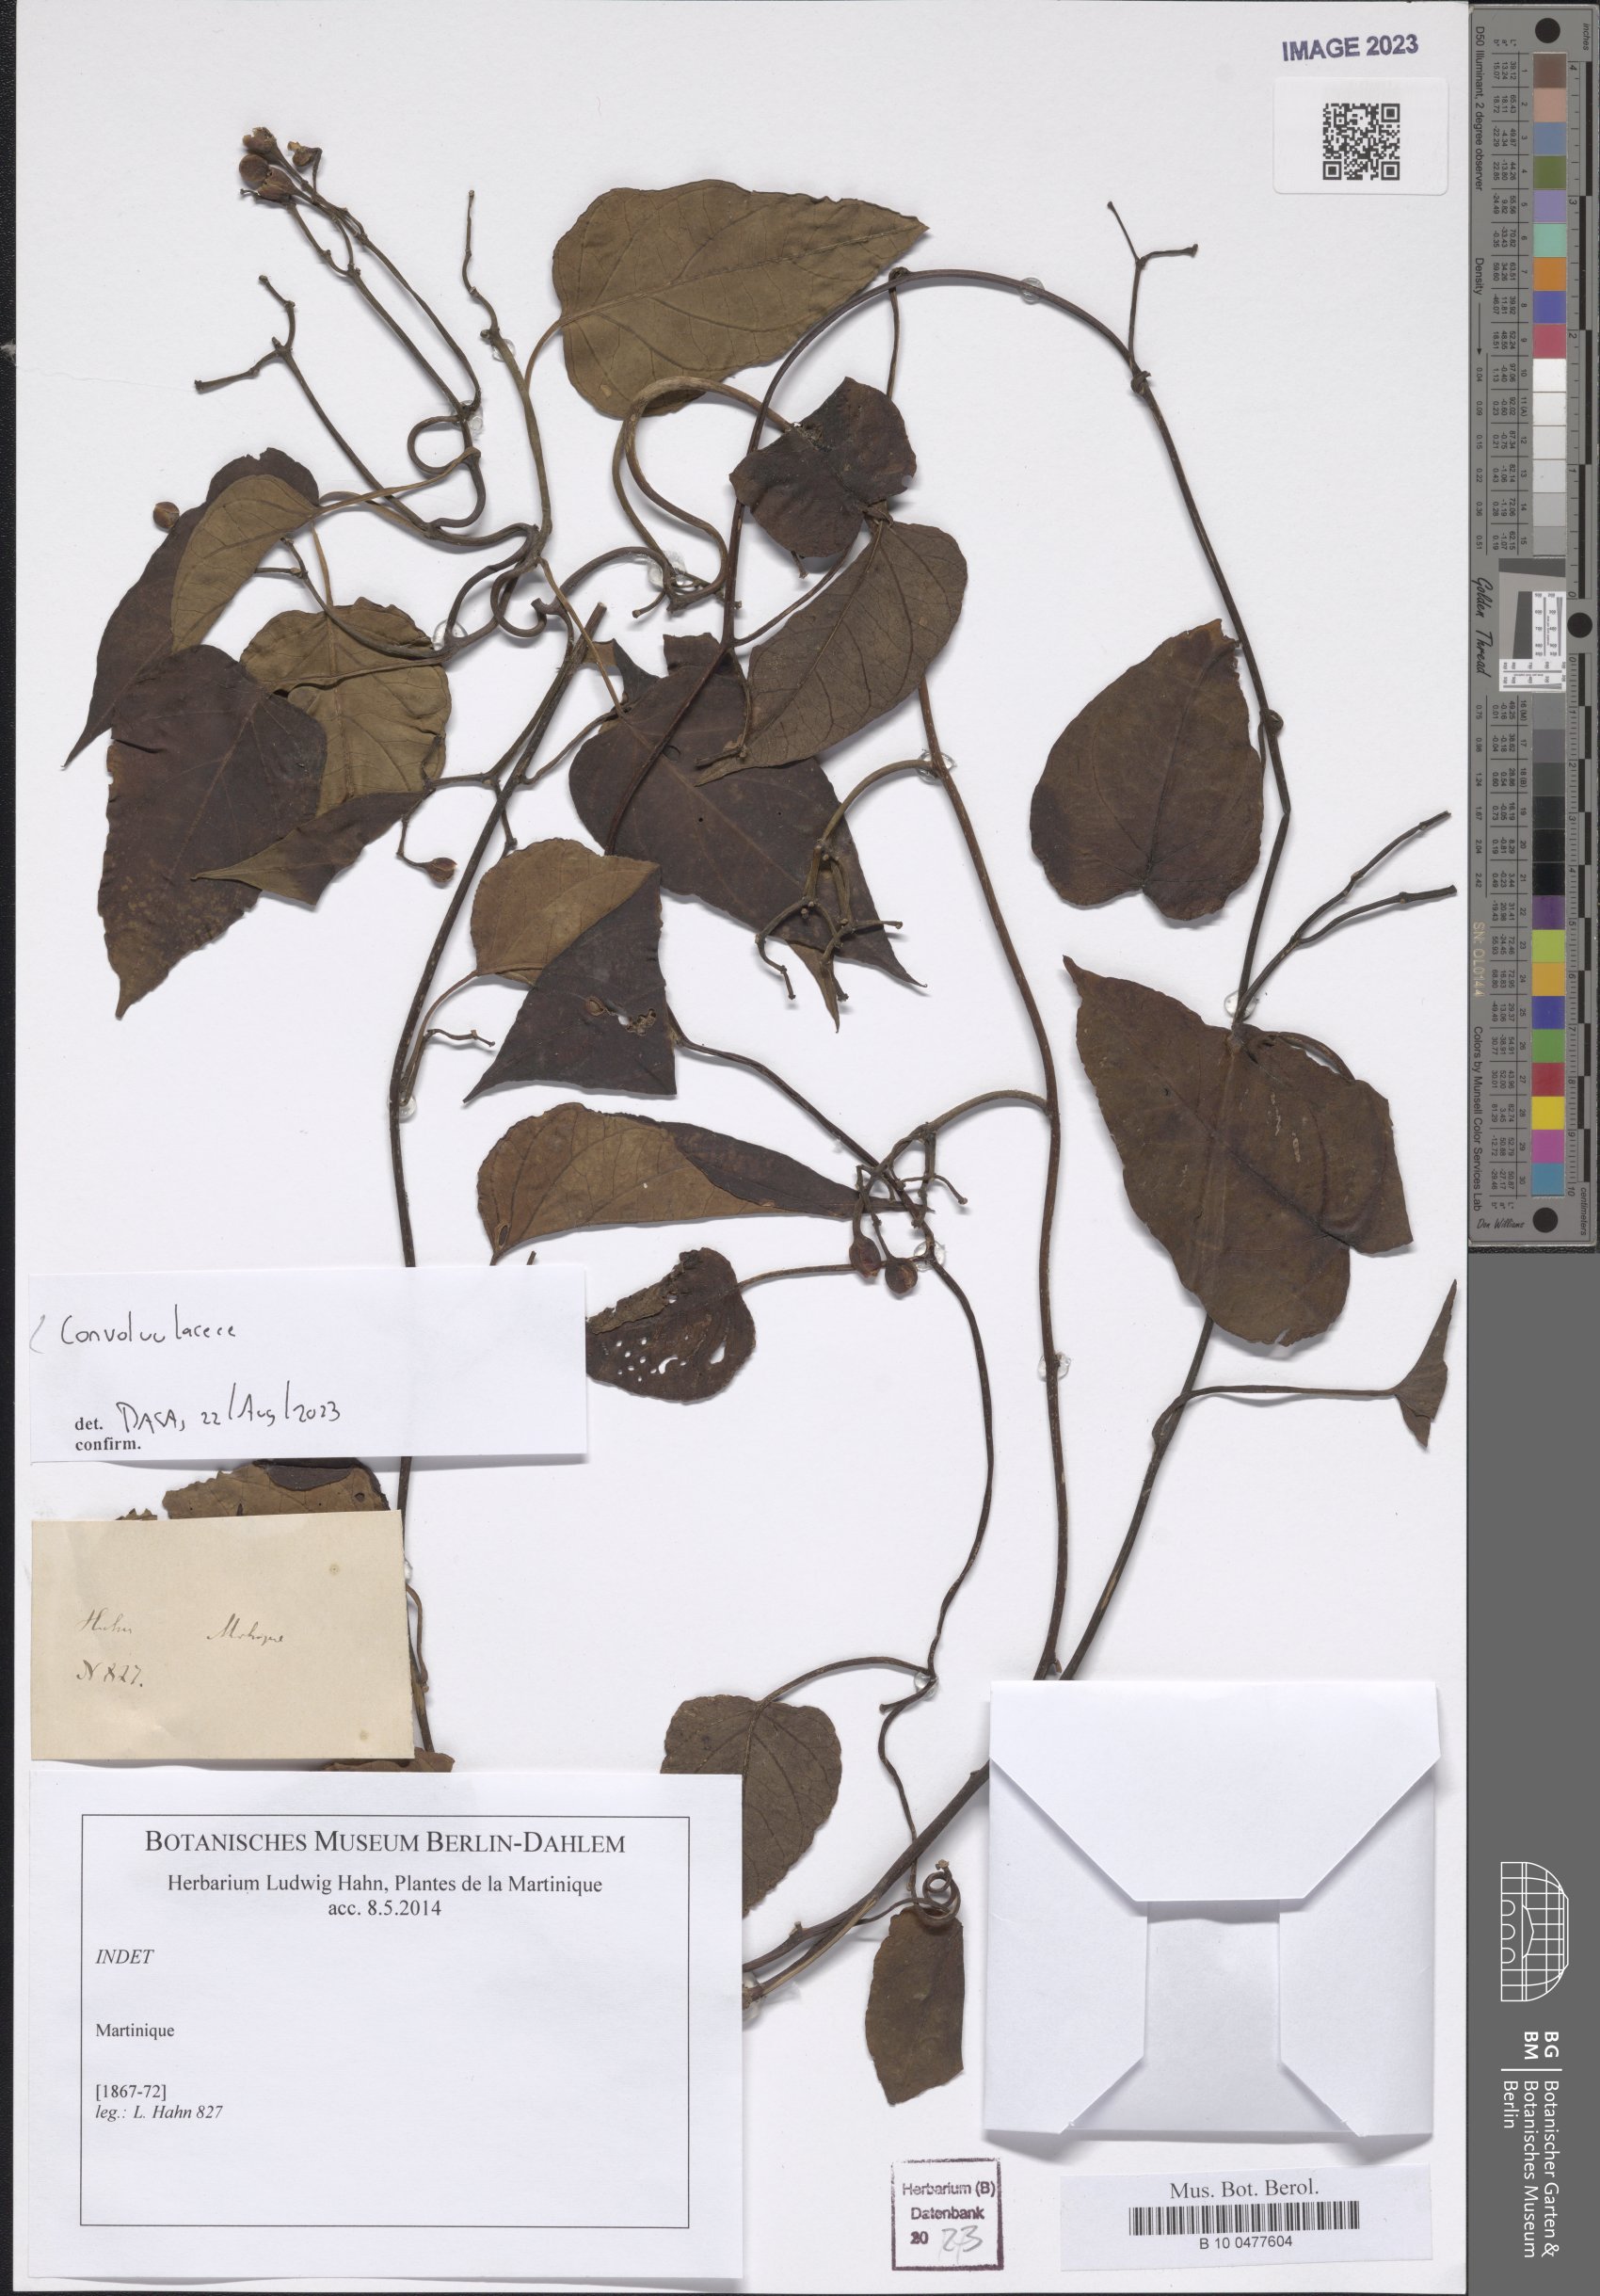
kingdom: Plantae
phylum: Tracheophyta
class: Magnoliopsida
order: Solanales
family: Convolvulaceae
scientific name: Convolvulaceae
